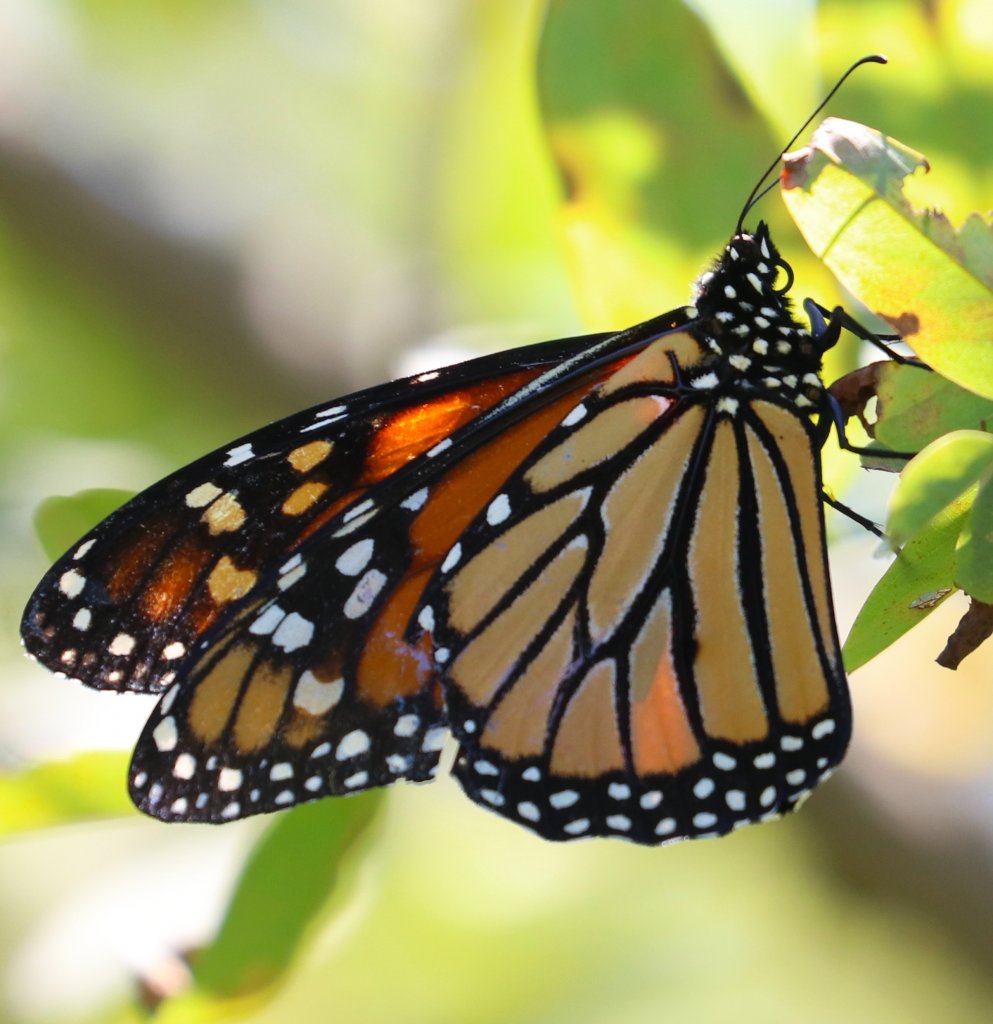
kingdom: Animalia
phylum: Arthropoda
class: Insecta
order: Lepidoptera
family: Nymphalidae
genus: Libytheana
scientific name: Libytheana carinenta
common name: American Snout
